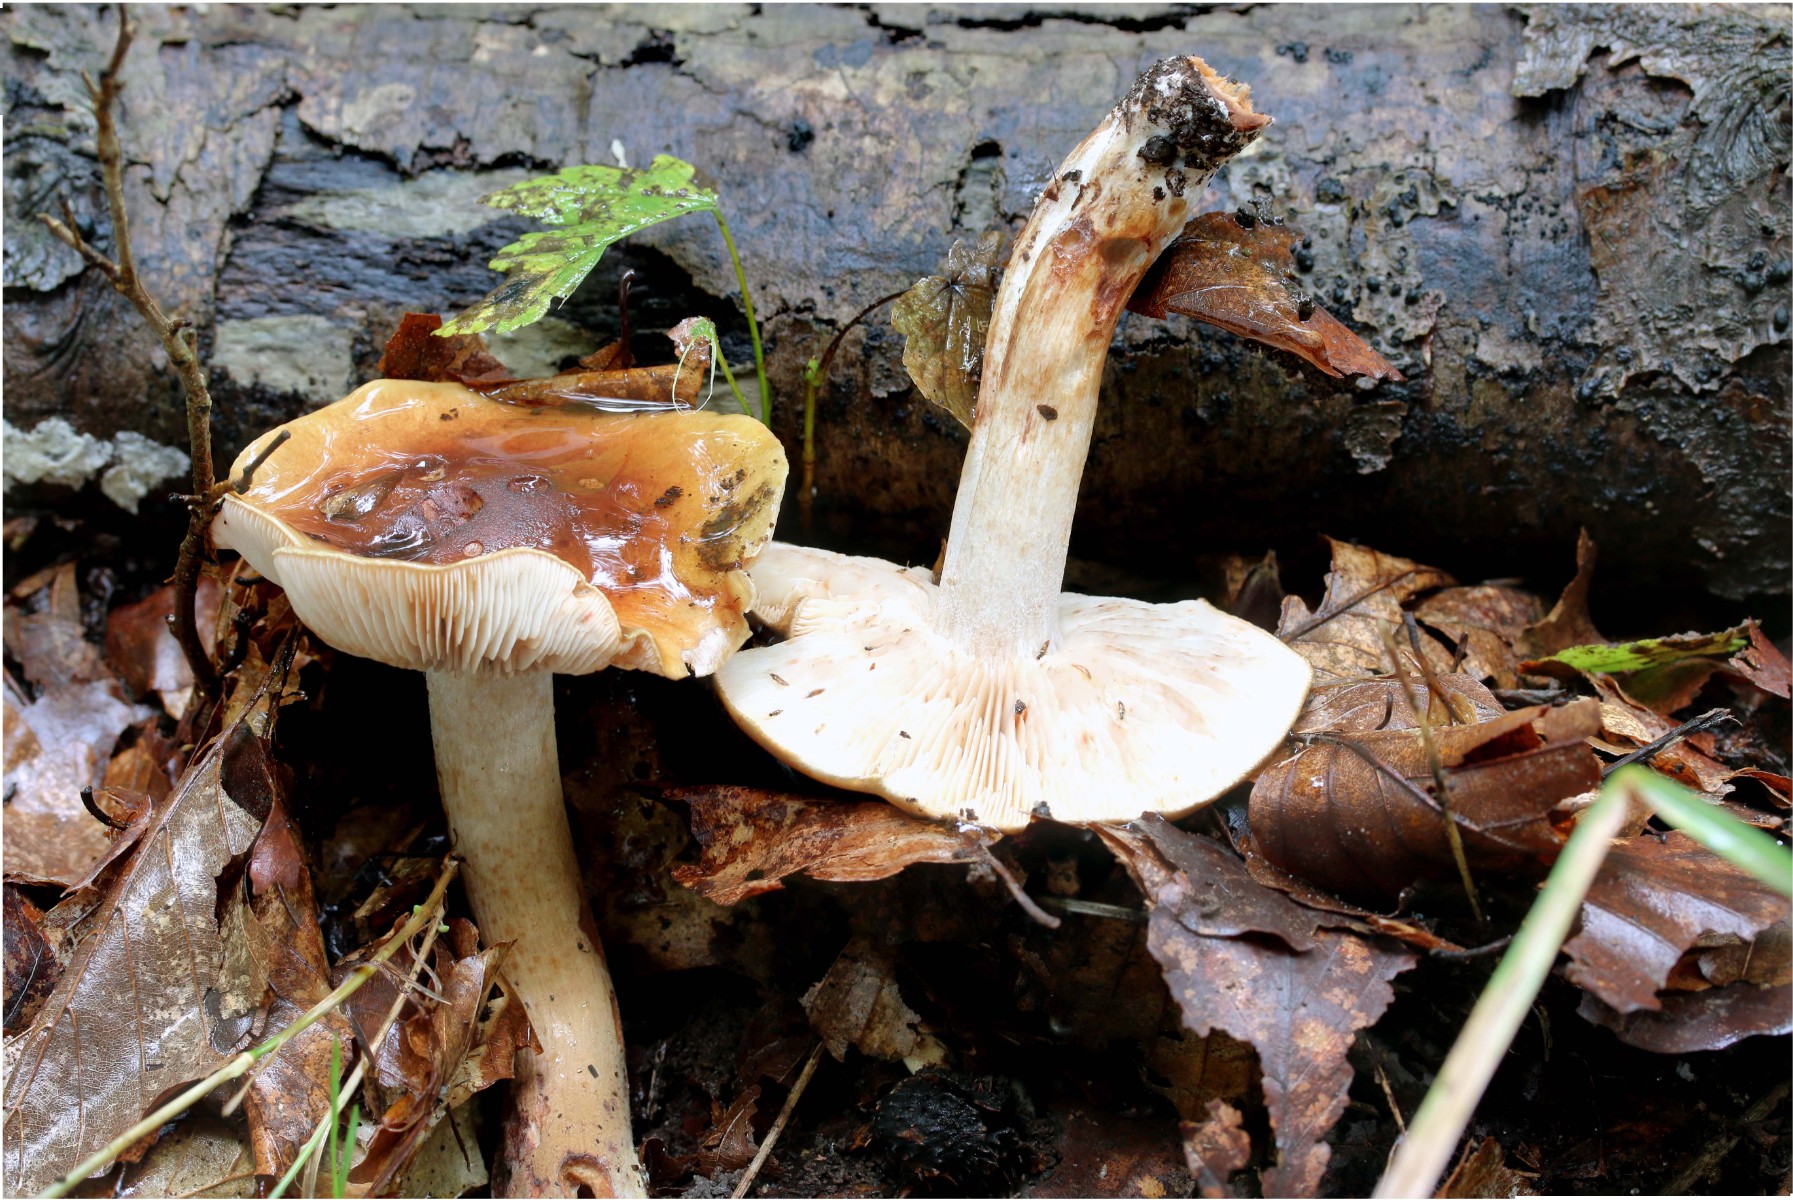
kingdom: Fungi
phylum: Basidiomycota
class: Agaricomycetes
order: Agaricales
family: Tricholomataceae
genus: Tricholoma
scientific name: Tricholoma ustale
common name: sveden ridderhat
